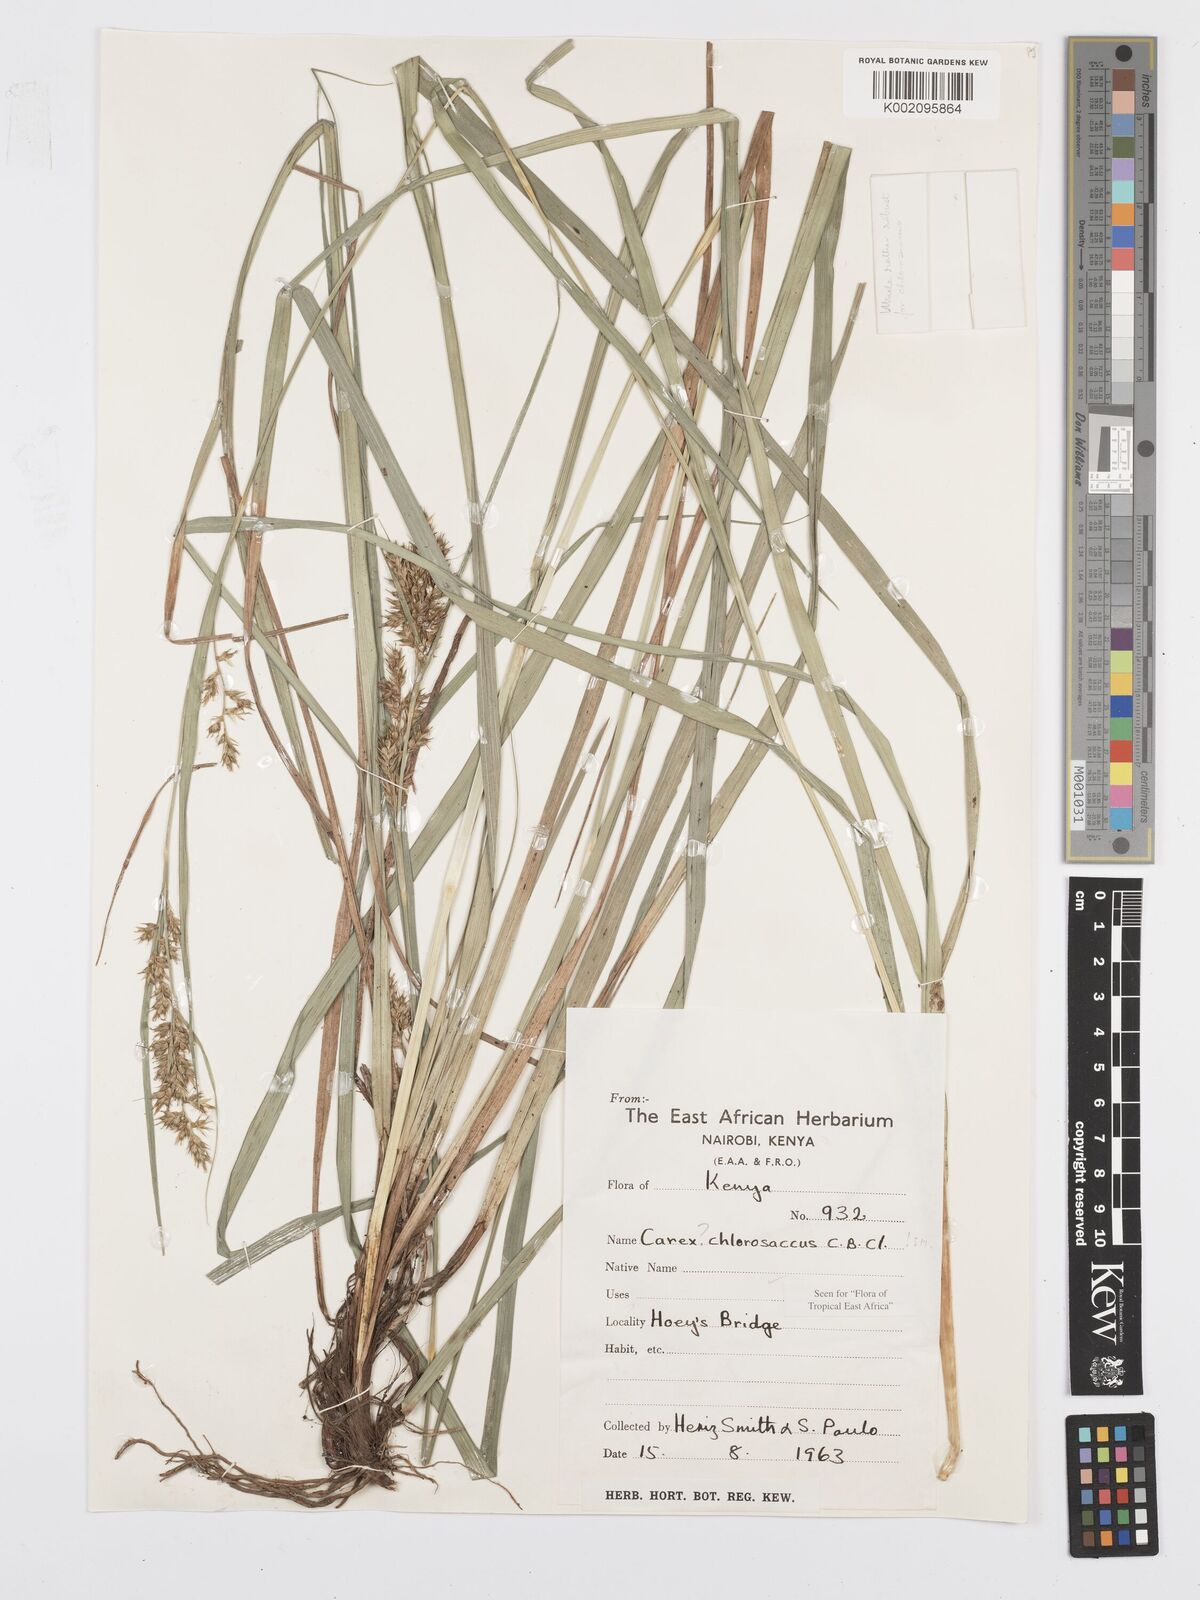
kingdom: Plantae
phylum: Tracheophyta
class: Liliopsida
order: Poales
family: Cyperaceae
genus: Carex
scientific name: Carex chlorosaccus
